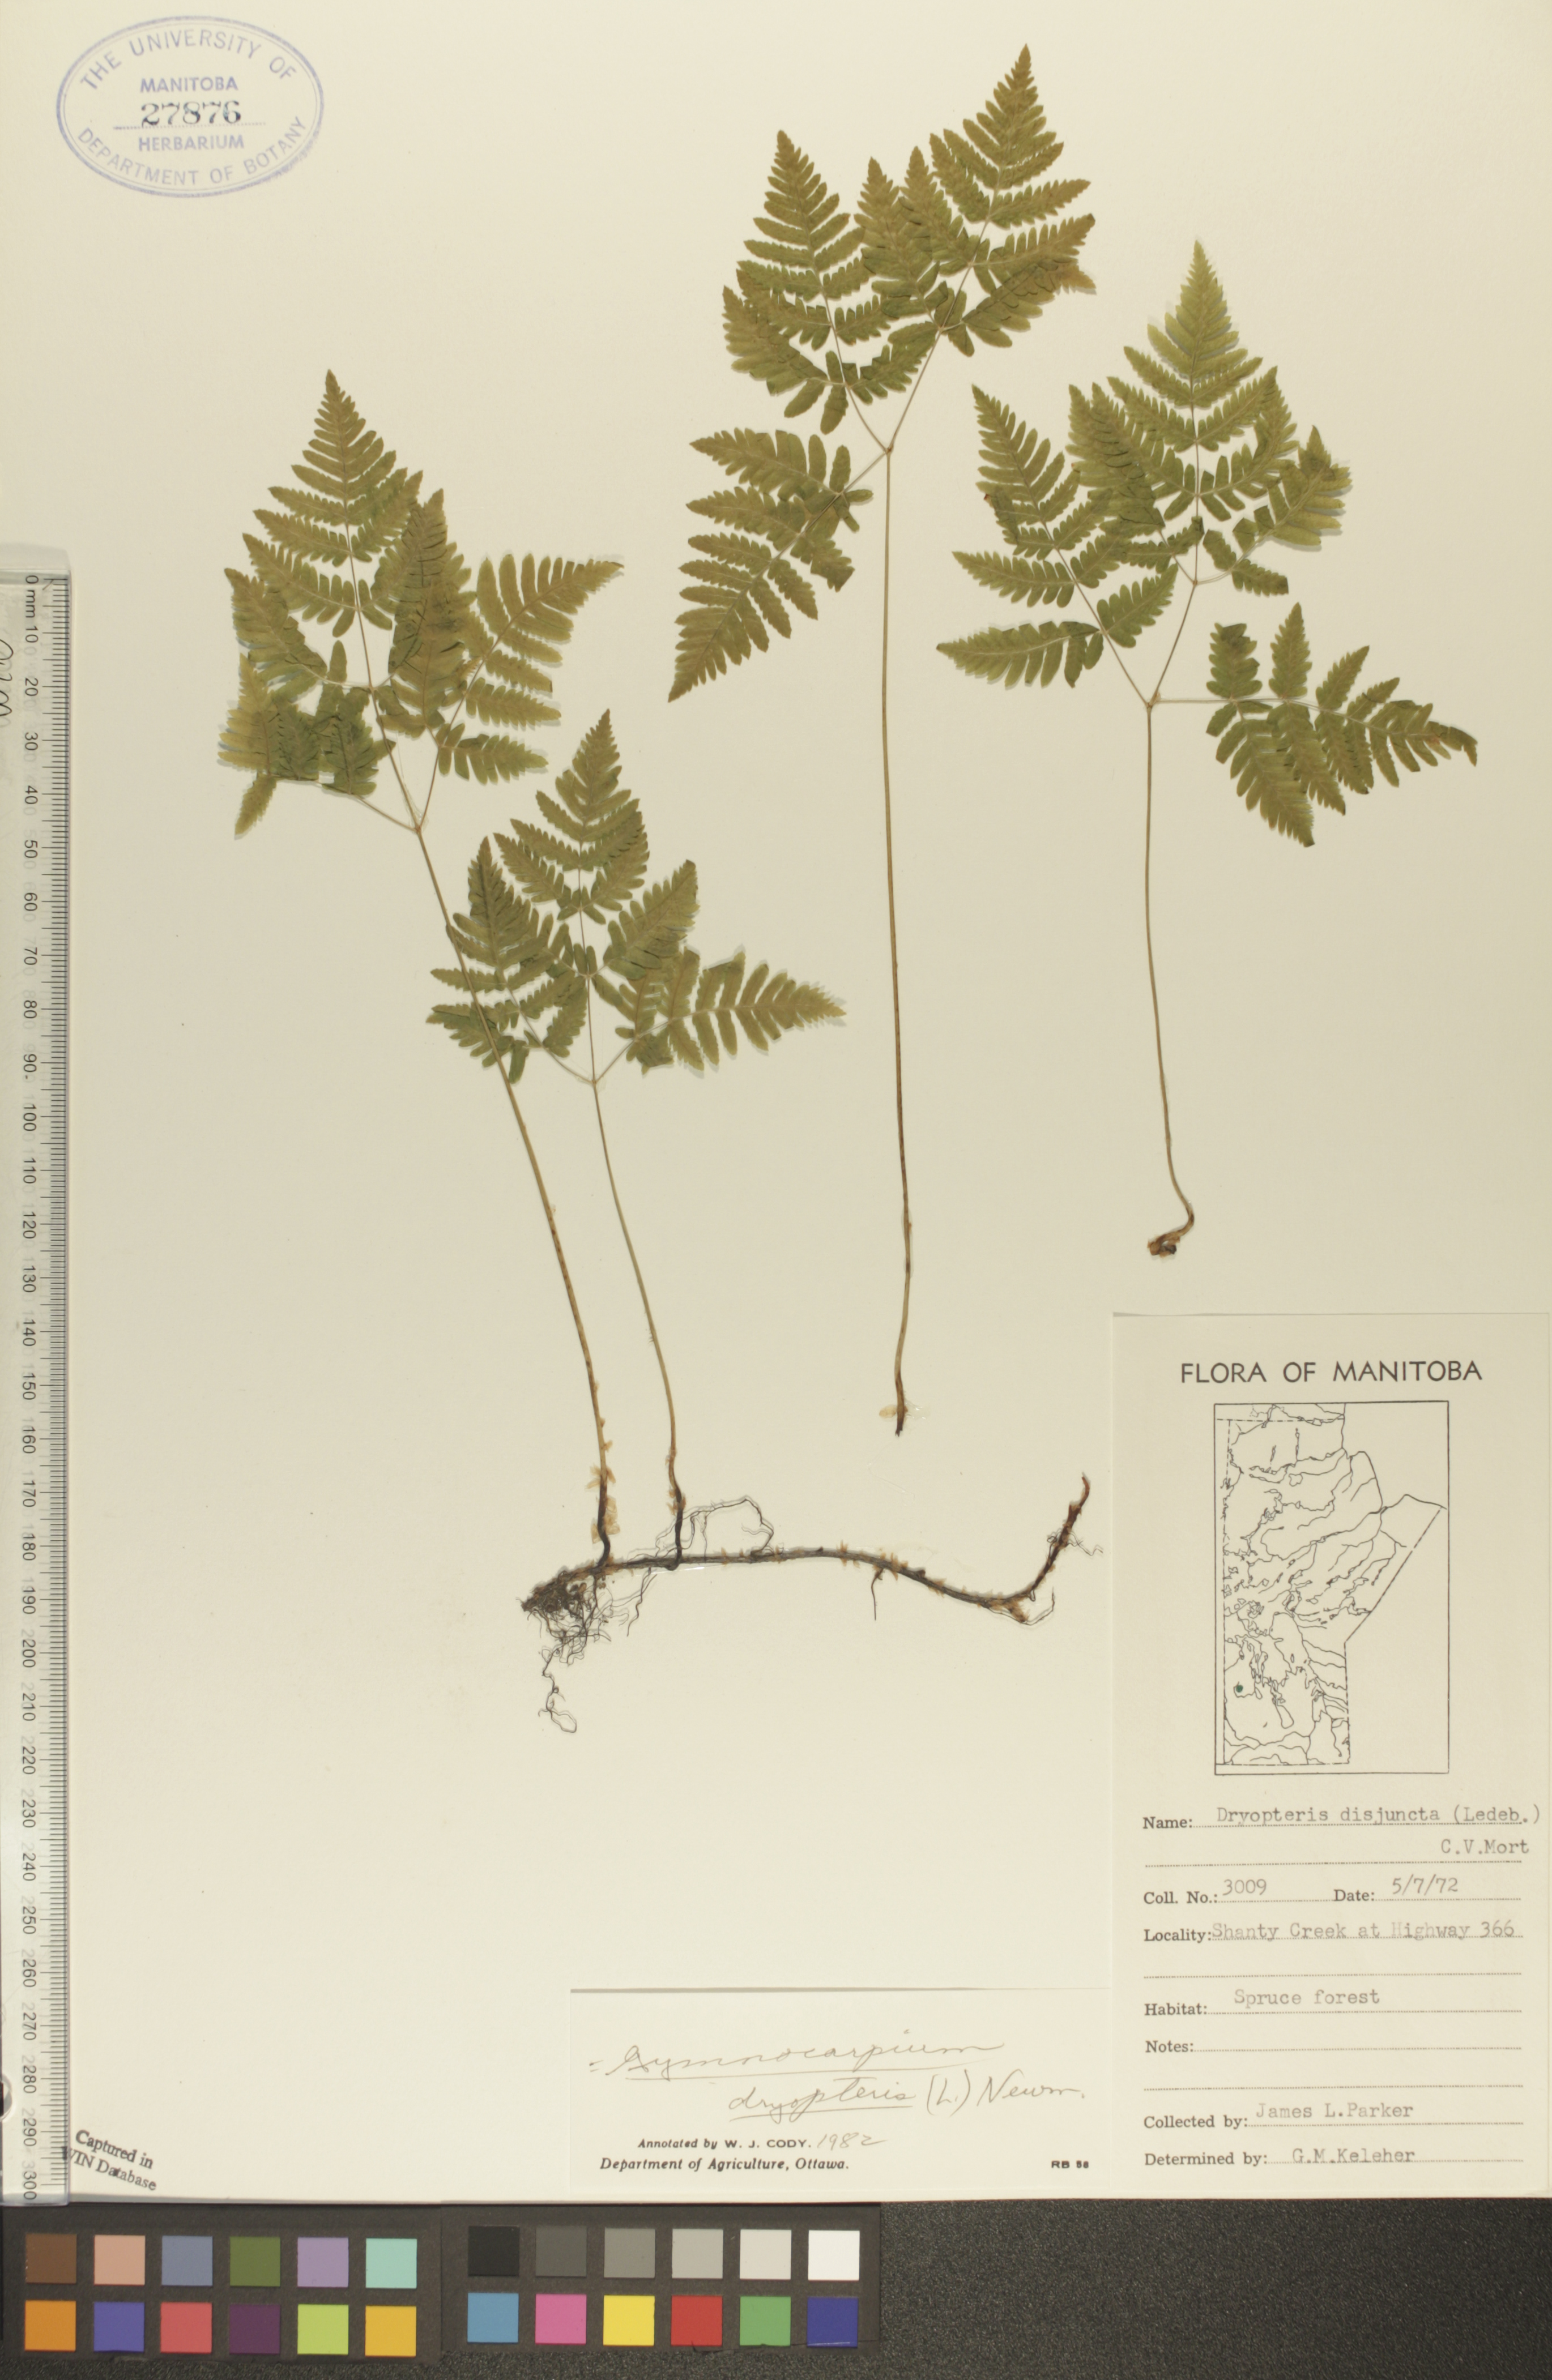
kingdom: Plantae
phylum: Tracheophyta
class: Polypodiopsida
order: Polypodiales
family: Cystopteridaceae
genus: Gymnocarpium
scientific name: Gymnocarpium dryopteris
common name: Oak fern
